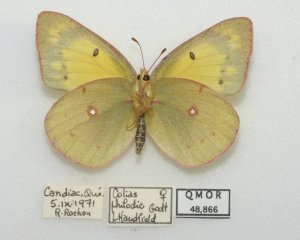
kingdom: Animalia
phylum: Arthropoda
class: Insecta
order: Lepidoptera
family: Pieridae
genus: Colias
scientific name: Colias philodice
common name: Clouded Sulphur
